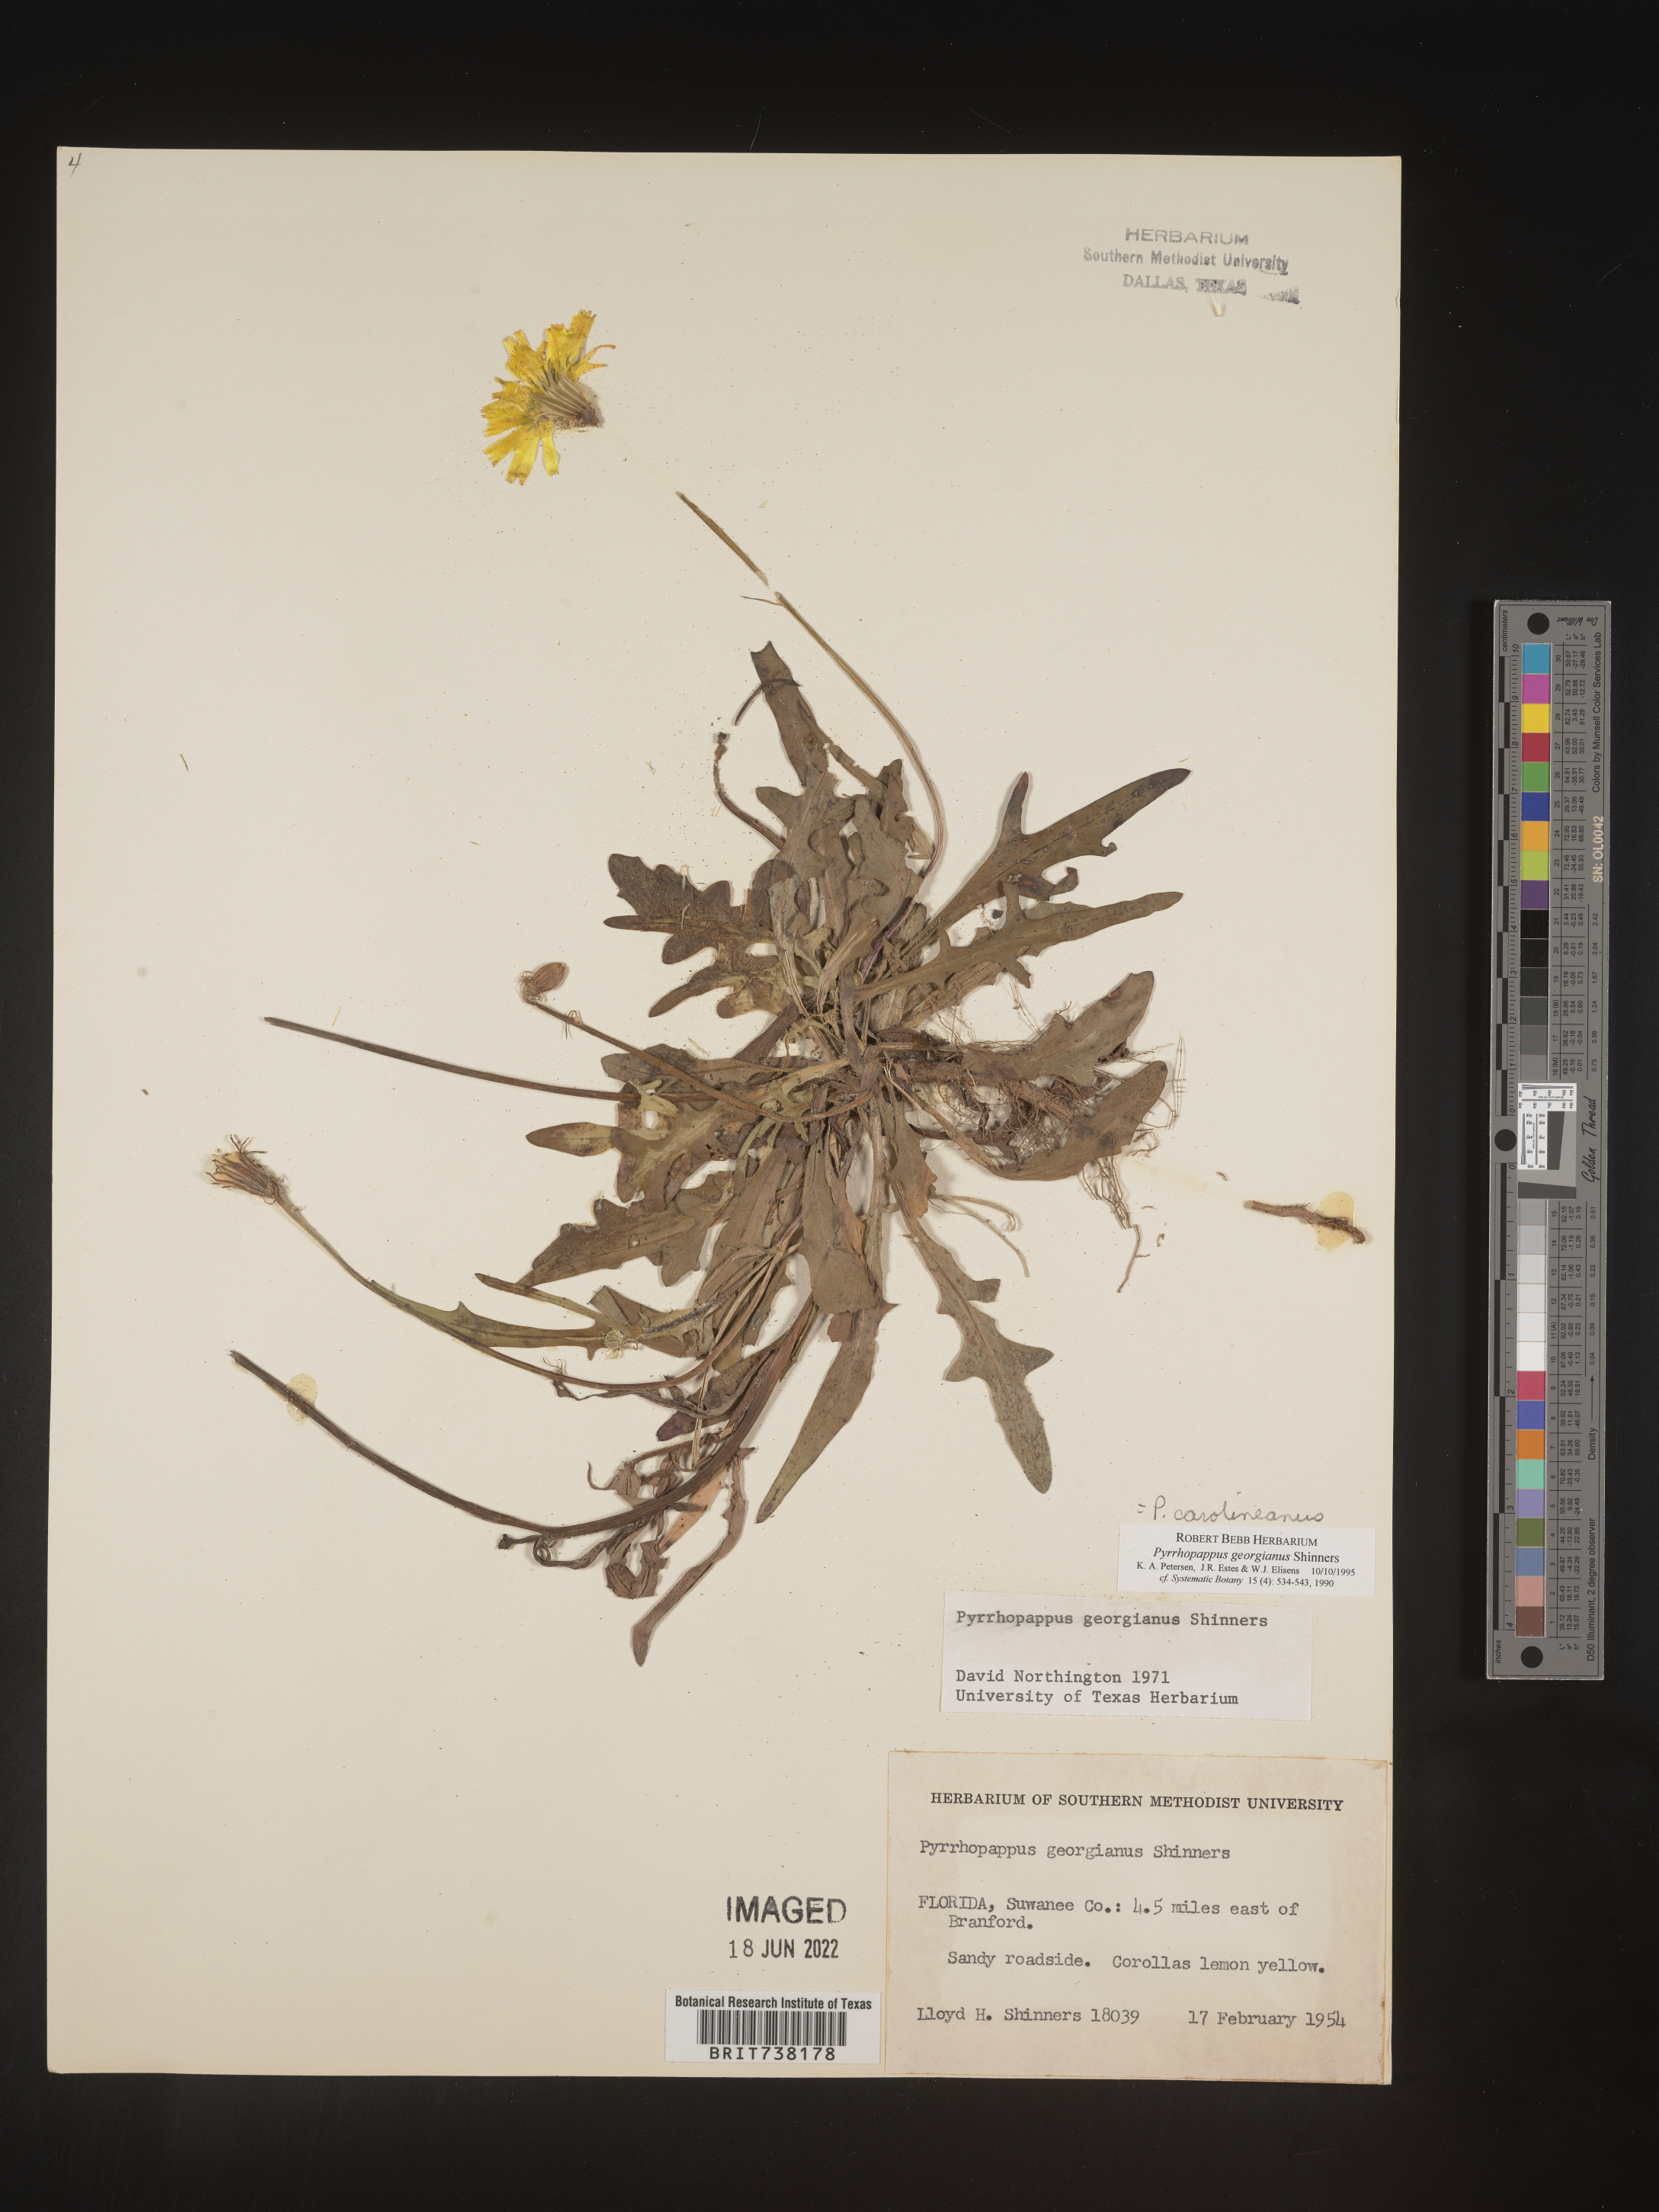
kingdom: Plantae
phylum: Tracheophyta
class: Magnoliopsida
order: Asterales
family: Asteraceae
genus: Pyrrhopappus
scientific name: Pyrrhopappus carolinianus
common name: Carolina desert-chicory
